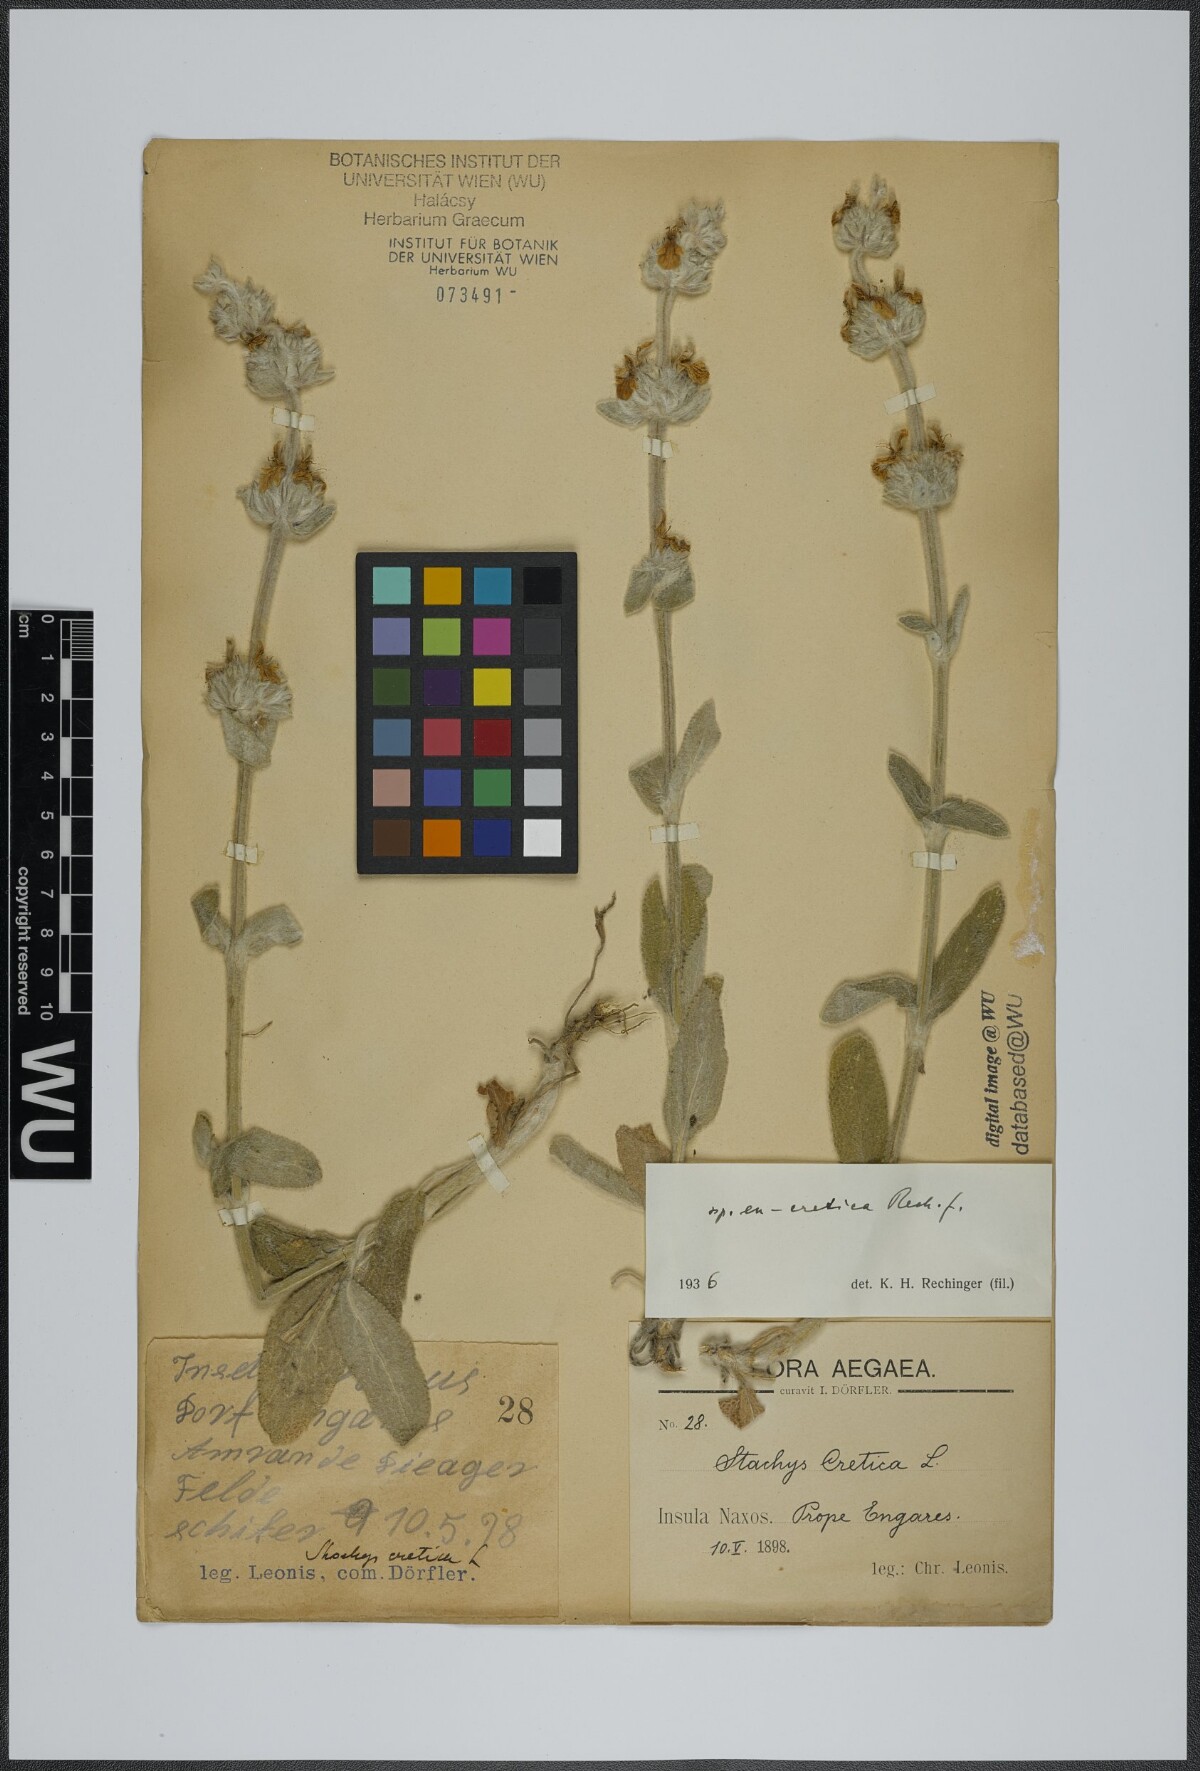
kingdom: Plantae
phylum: Tracheophyta
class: Magnoliopsida
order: Lamiales
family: Lamiaceae
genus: Stachys
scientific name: Stachys cretica
